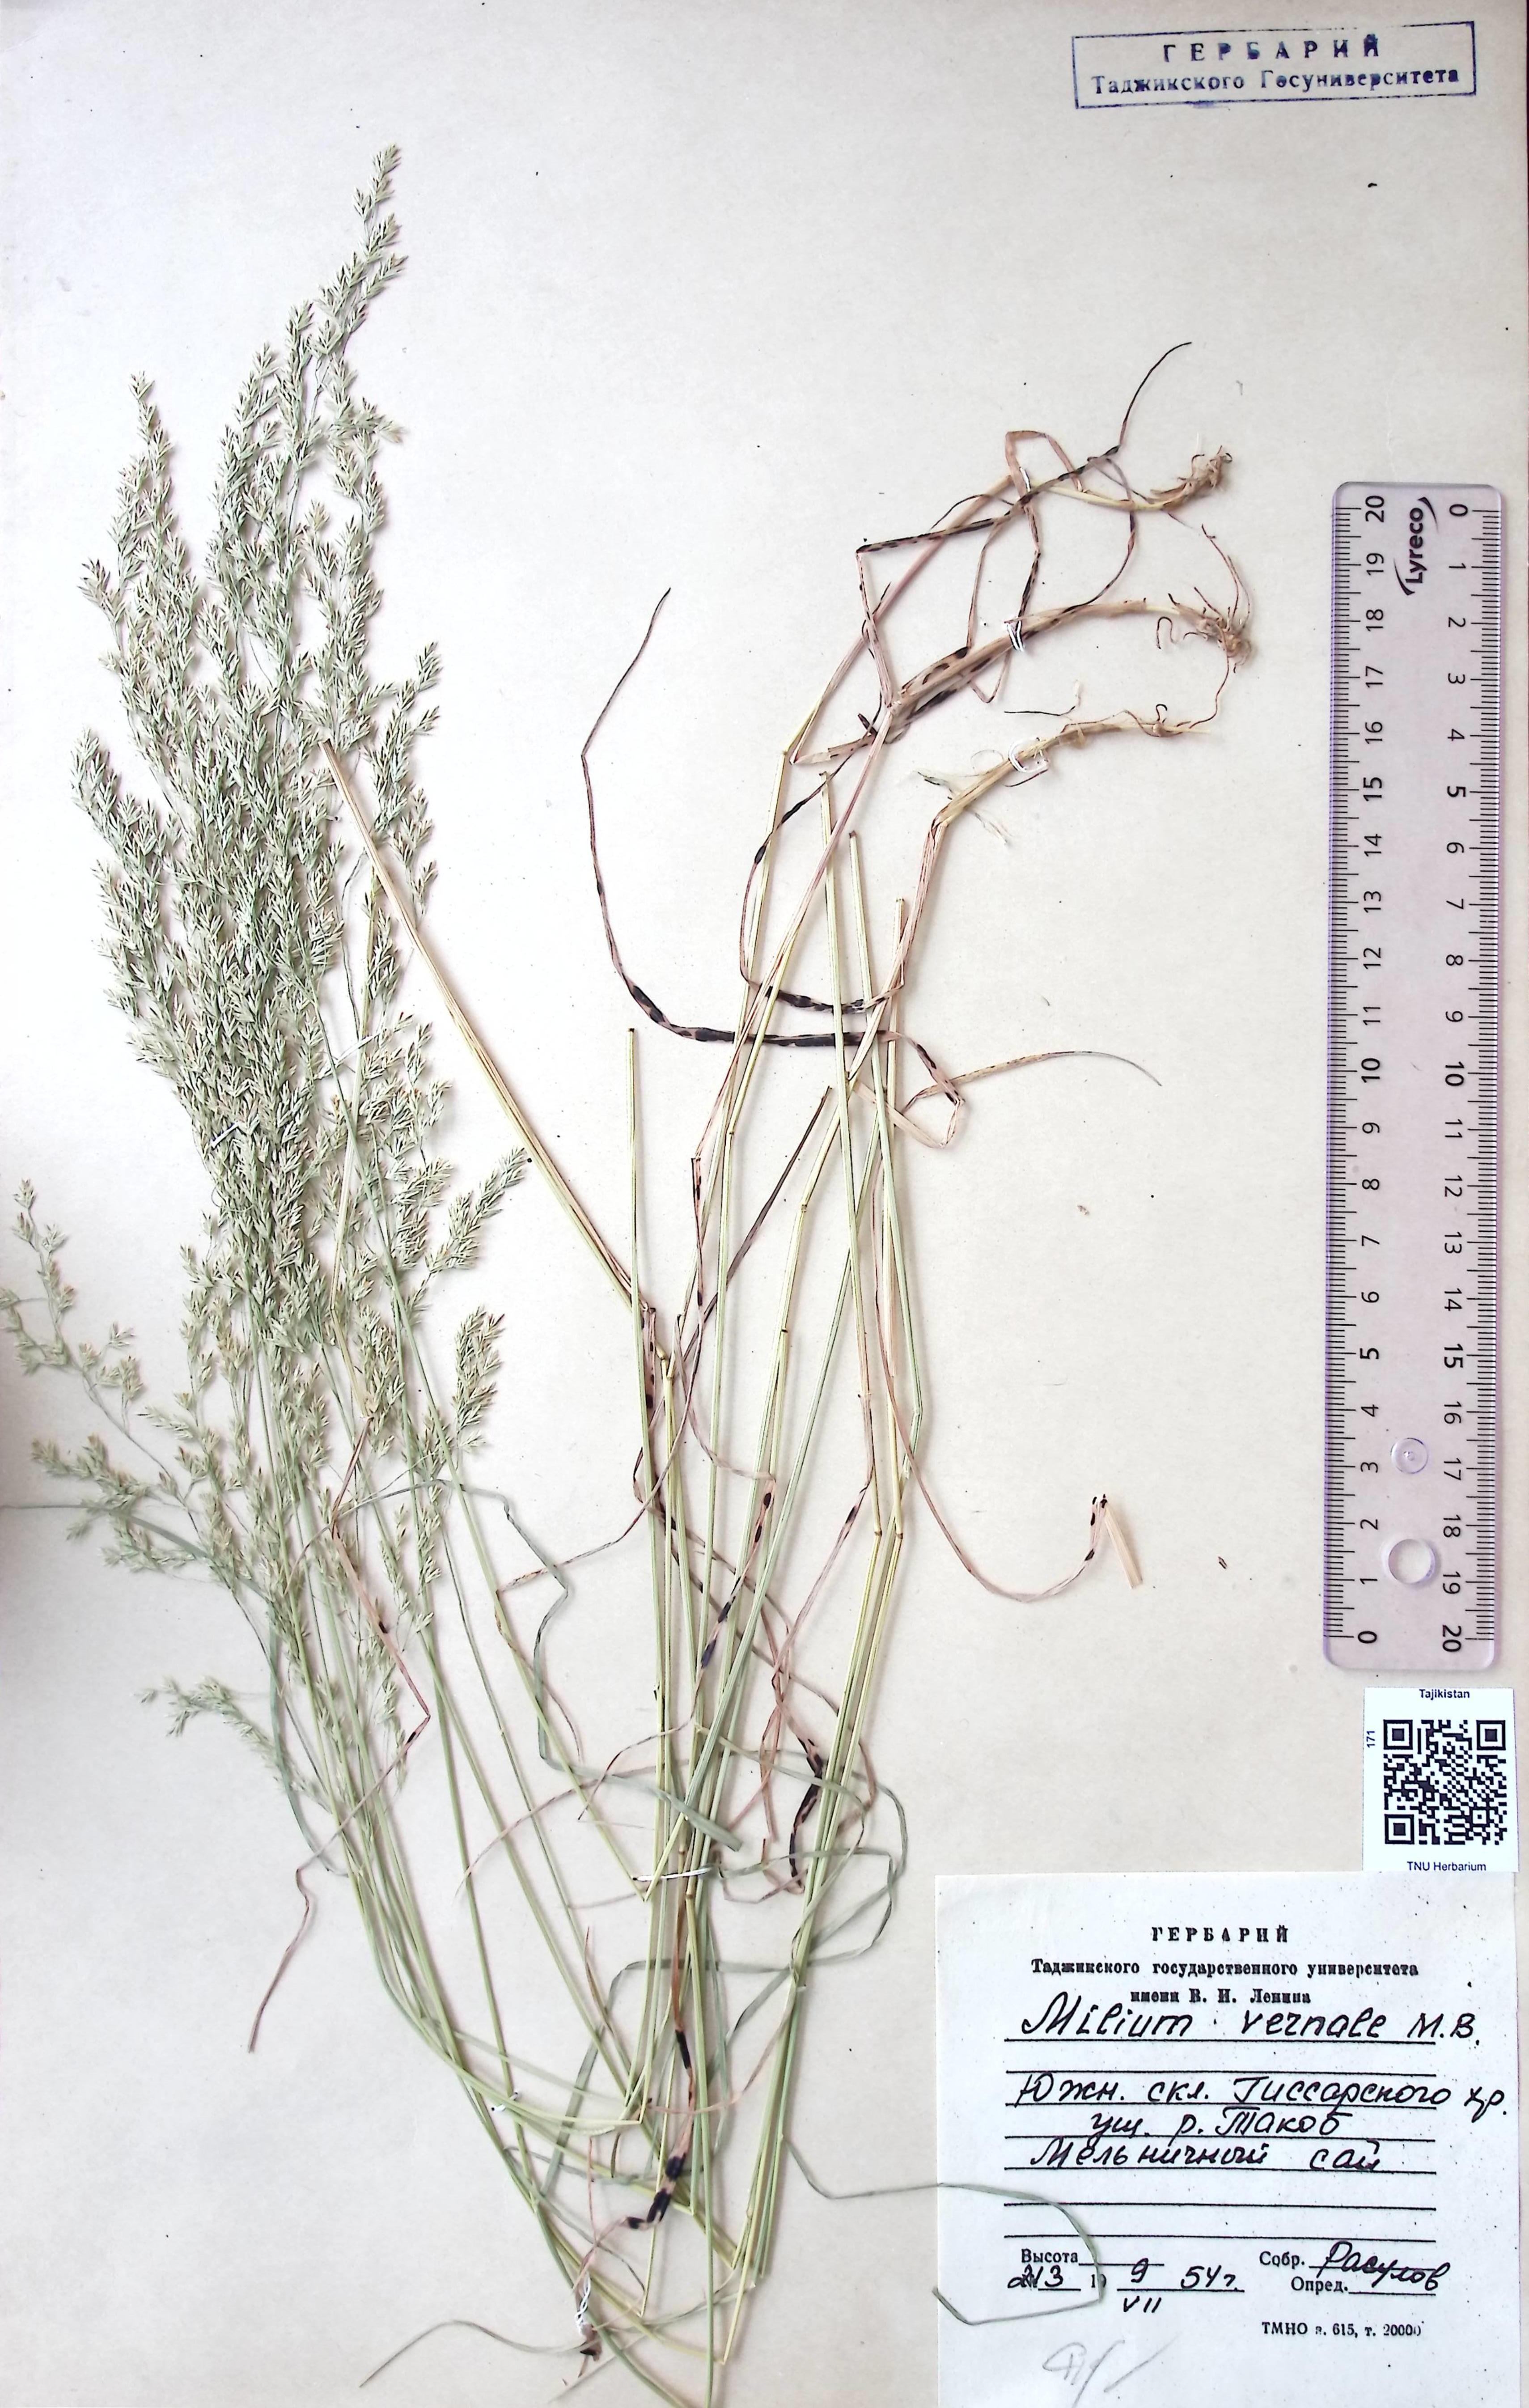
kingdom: Plantae
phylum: Tracheophyta
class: Liliopsida
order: Poales
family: Poaceae
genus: Milium
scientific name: Milium vernale
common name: Early millet
